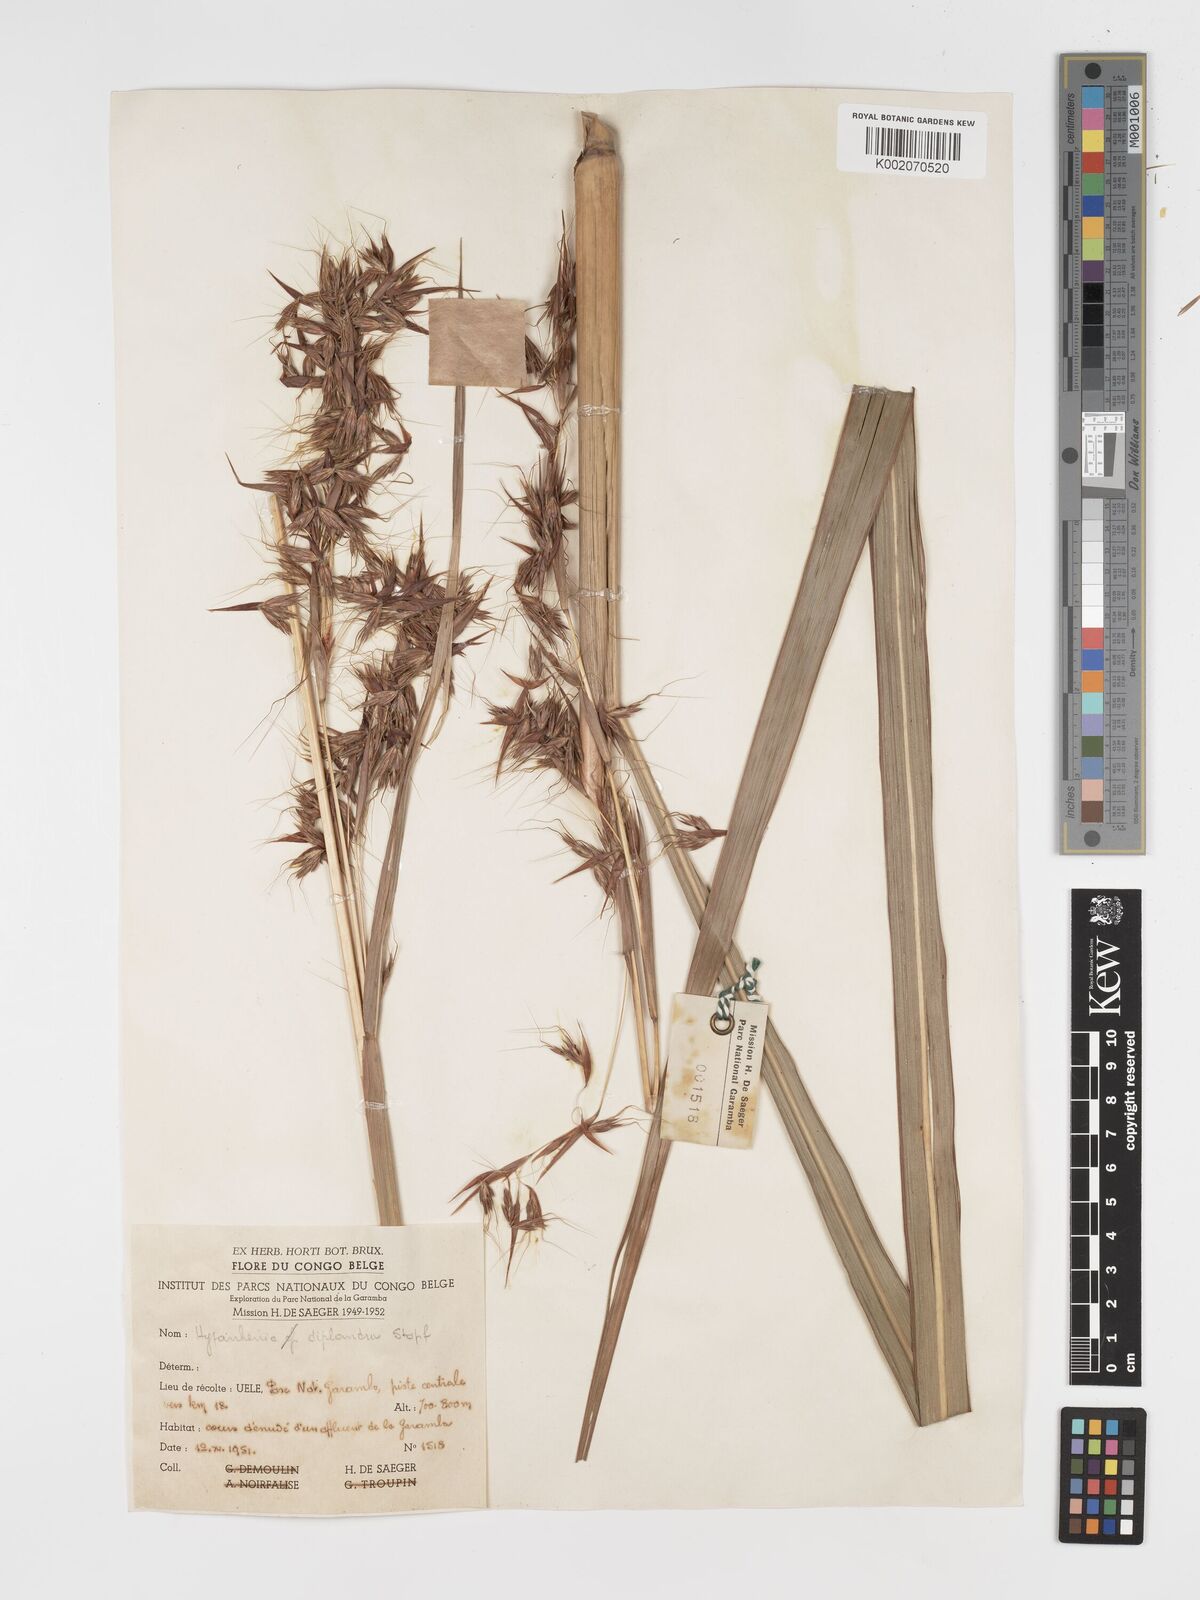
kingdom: Plantae
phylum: Tracheophyta
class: Liliopsida
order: Poales
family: Poaceae
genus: Hyparrhenia
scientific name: Hyparrhenia diplandra
